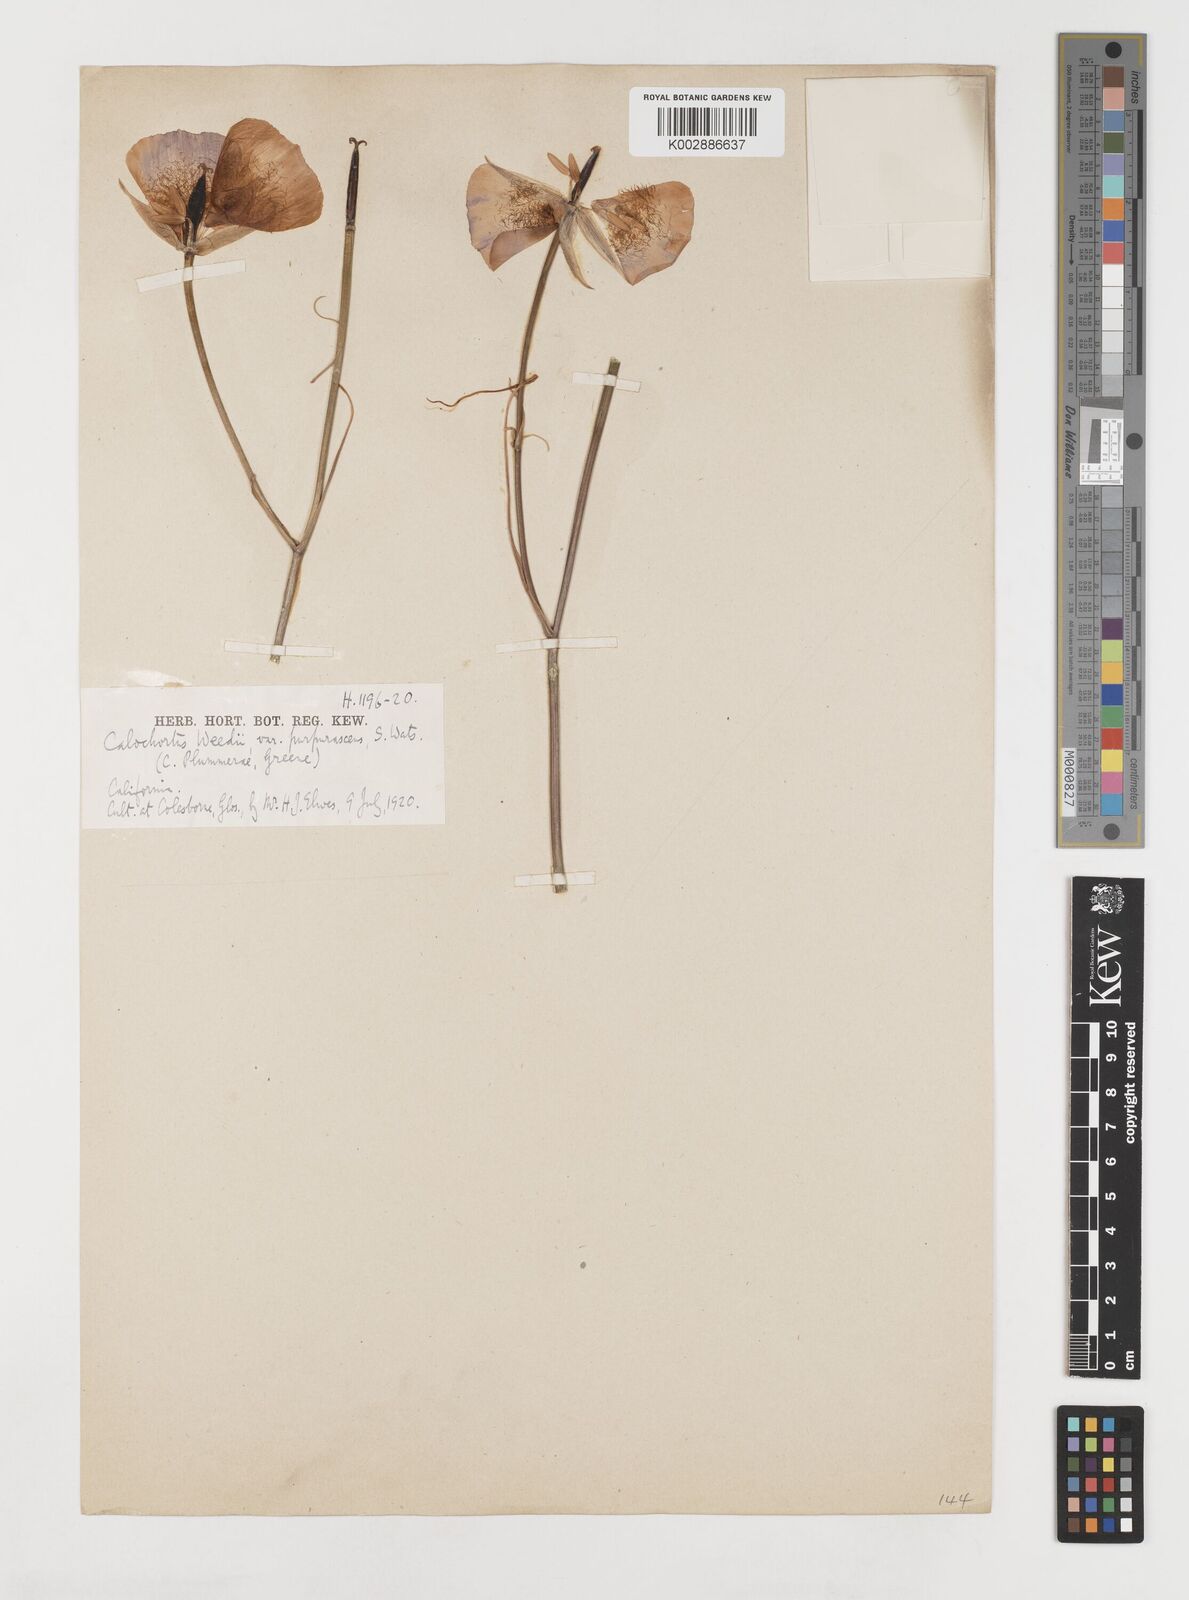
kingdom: Plantae
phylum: Tracheophyta
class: Liliopsida
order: Liliales
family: Liliaceae
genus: Calochortus
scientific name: Calochortus plummerae
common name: Plummer's mariposa-lily
